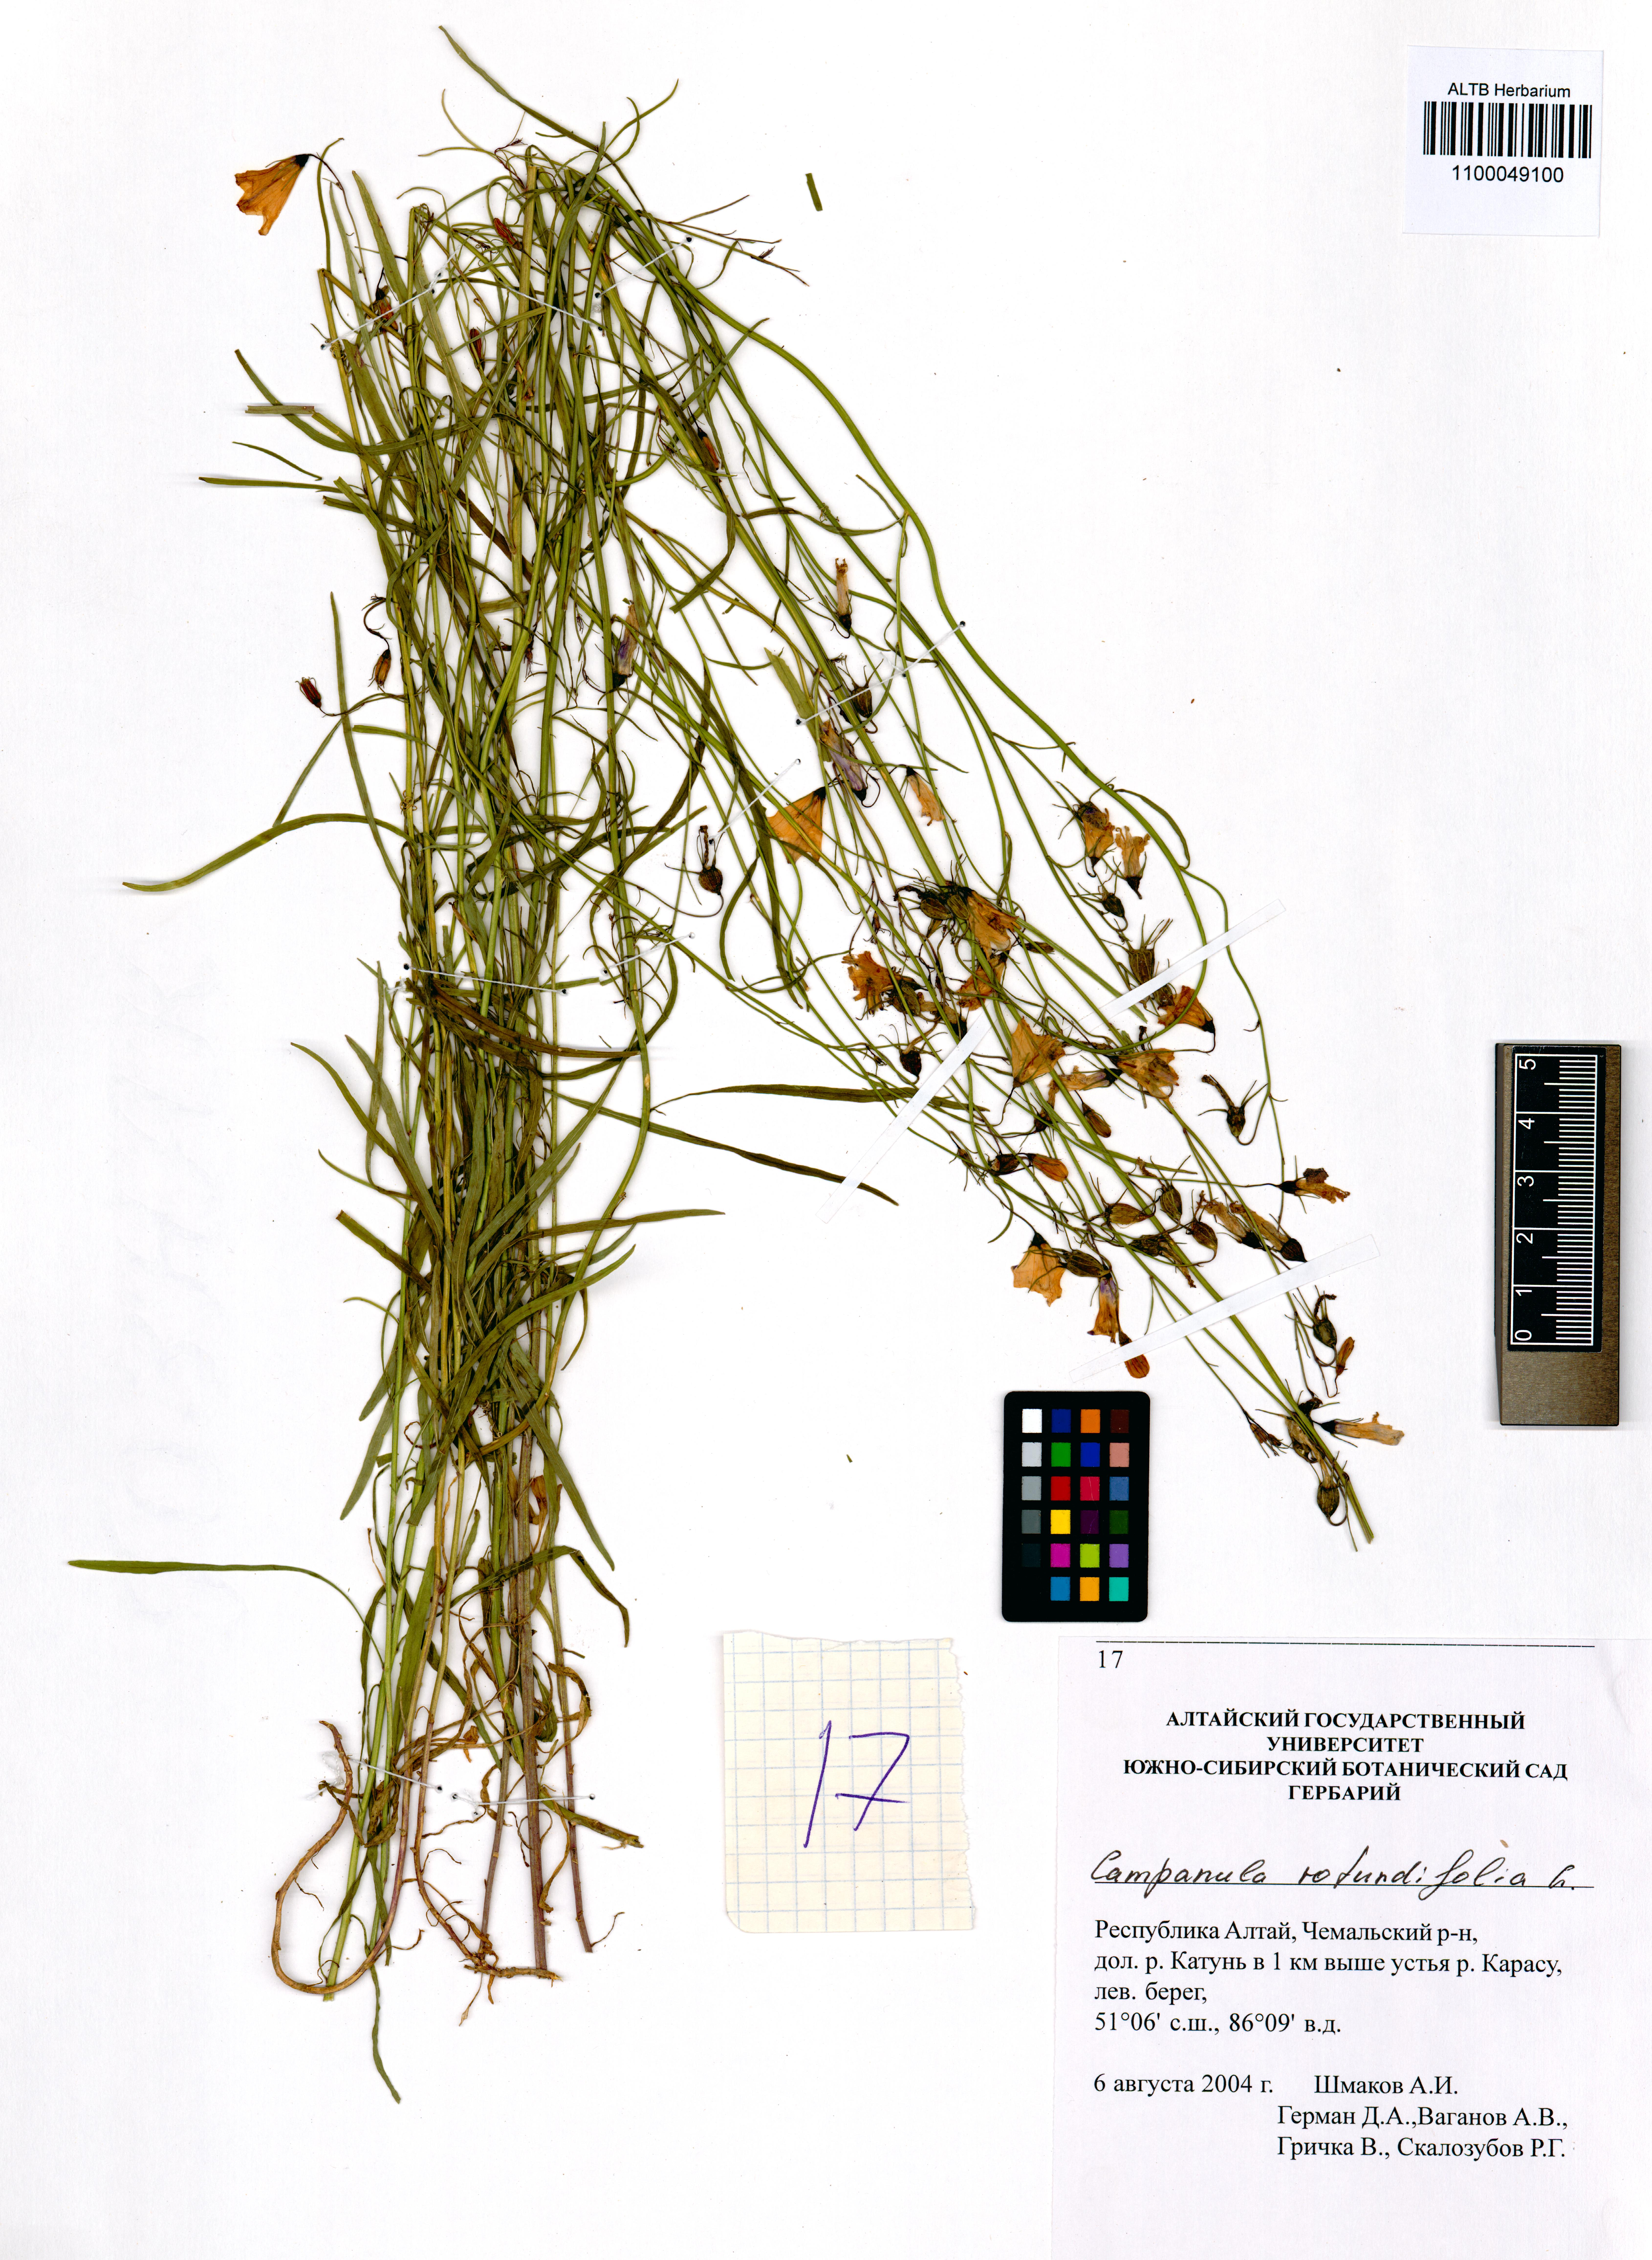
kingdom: Plantae
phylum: Tracheophyta
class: Magnoliopsida
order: Asterales
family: Campanulaceae
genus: Campanula
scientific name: Campanula rotundifolia
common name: Harebell
